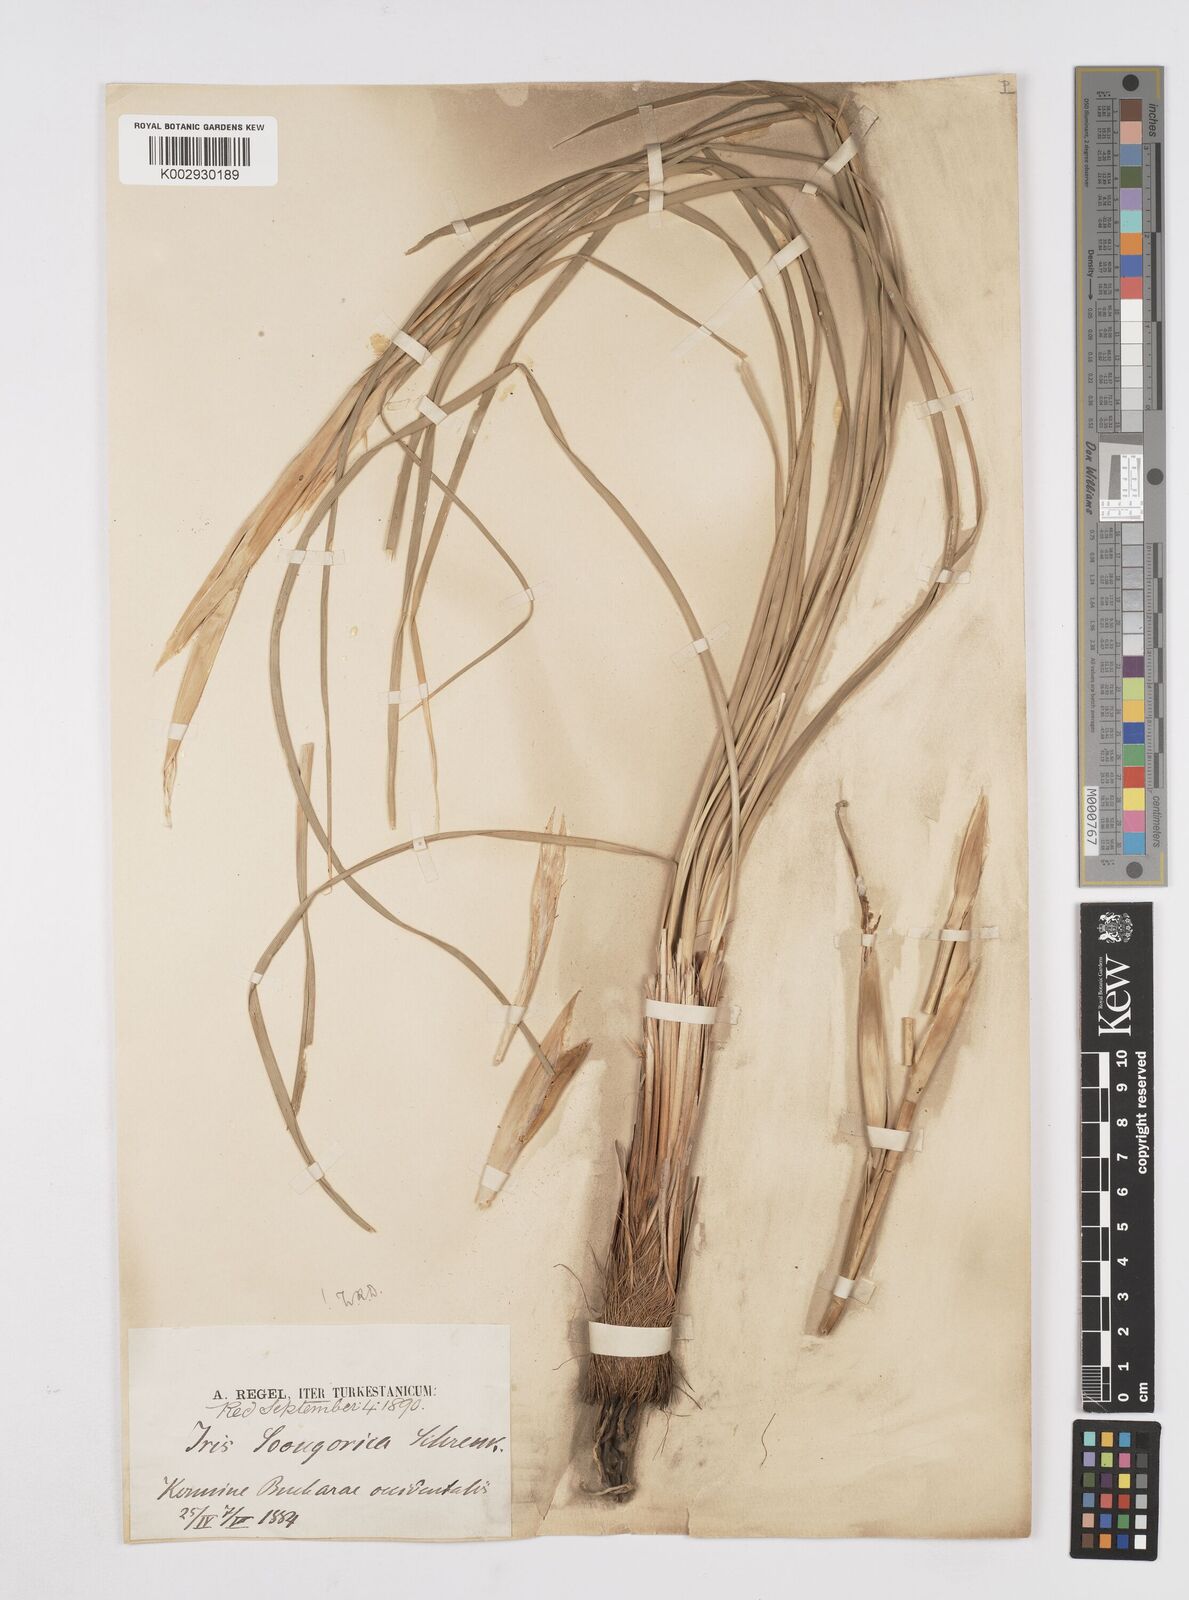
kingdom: Plantae
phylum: Tracheophyta
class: Liliopsida
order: Asparagales
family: Iridaceae
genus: Iris
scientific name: Iris songarica
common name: Songar iris
